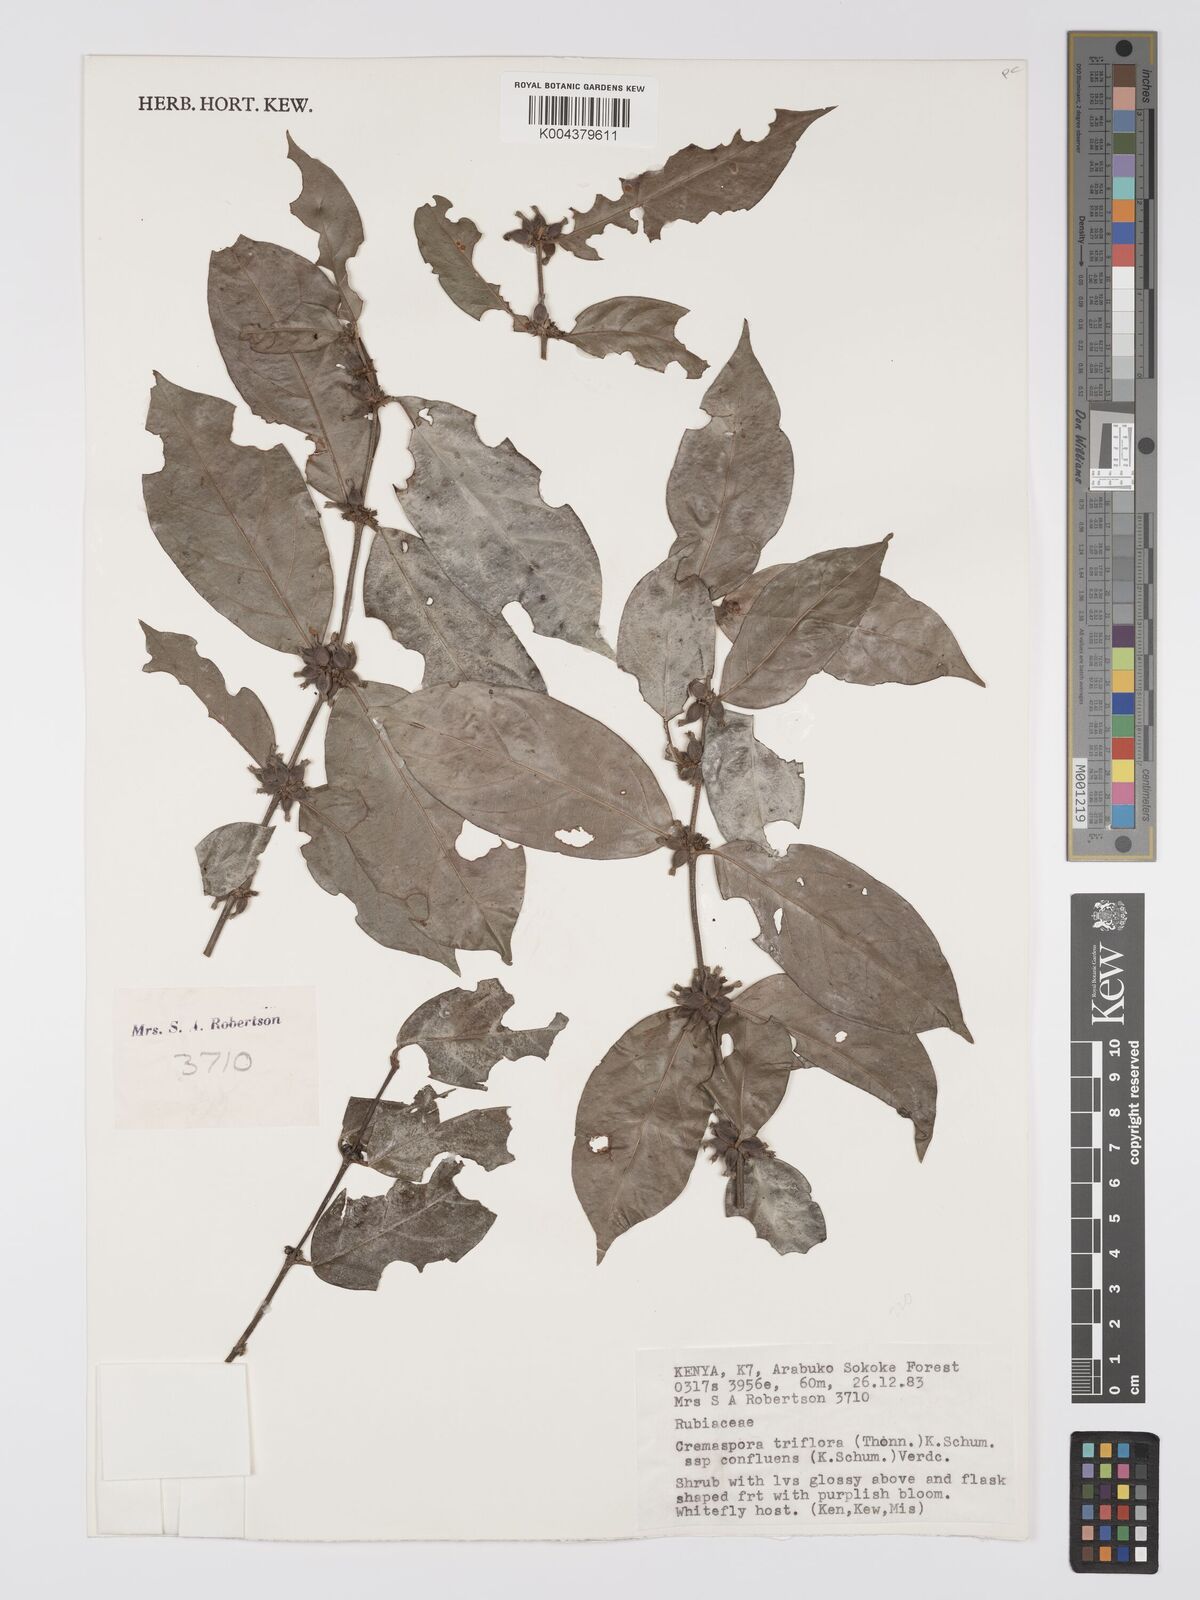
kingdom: Plantae
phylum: Tracheophyta
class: Magnoliopsida
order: Gentianales
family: Rubiaceae
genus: Cremaspora
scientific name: Cremaspora triflora
